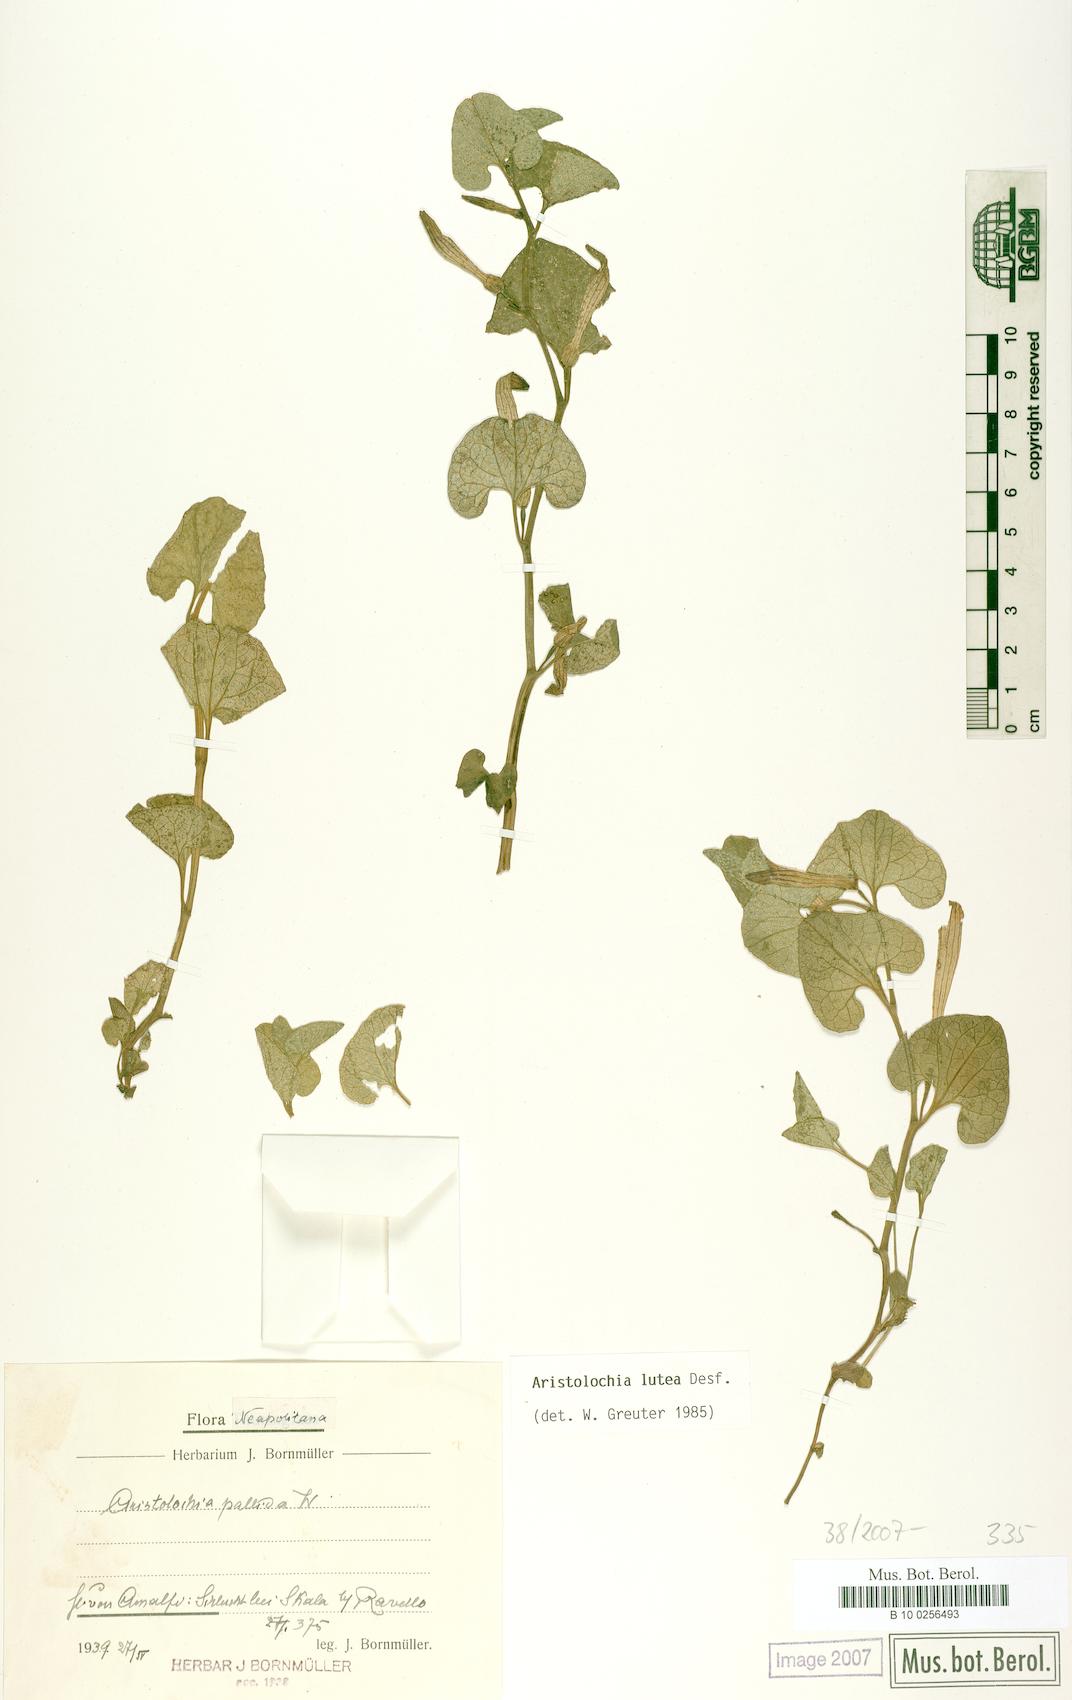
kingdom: Plantae
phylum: Tracheophyta
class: Magnoliopsida
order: Piperales
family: Aristolochiaceae
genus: Aristolochia
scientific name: Aristolochia lutea
